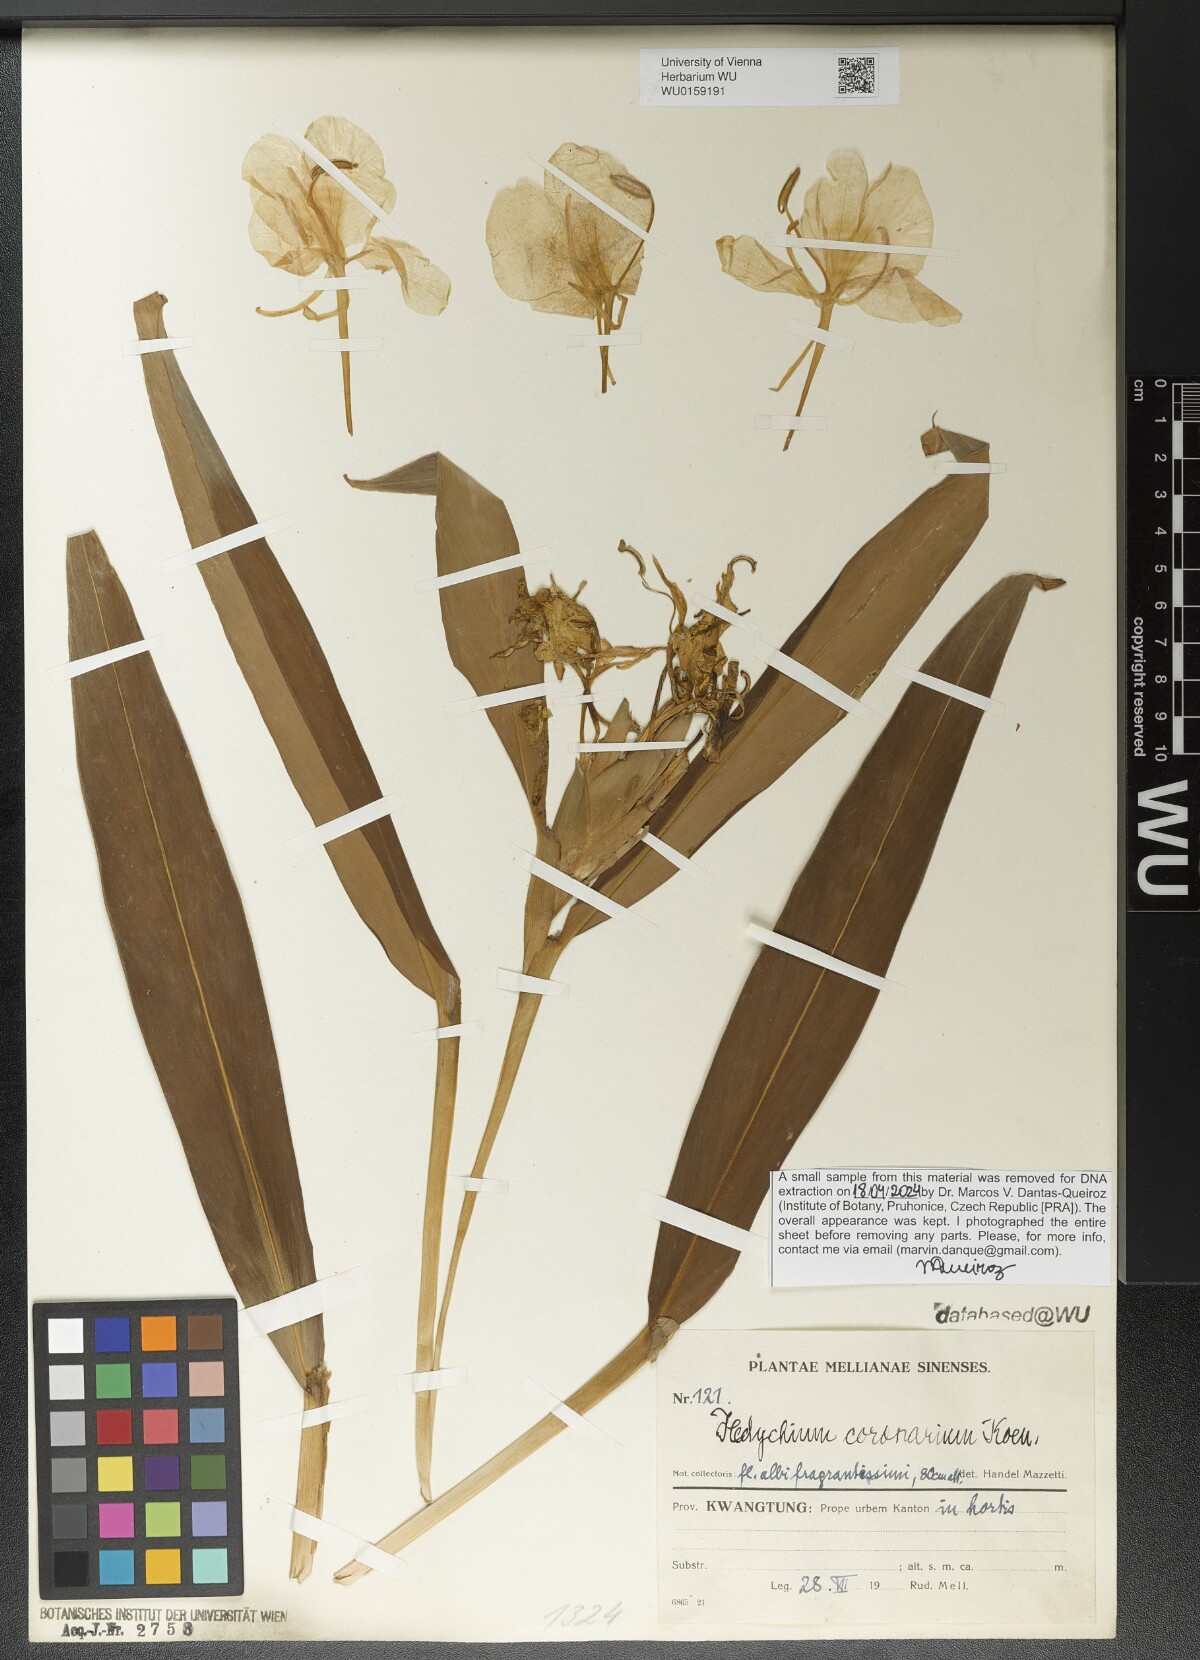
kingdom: Plantae
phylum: Tracheophyta
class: Liliopsida
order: Zingiberales
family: Zingiberaceae
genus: Hedychium
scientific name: Hedychium coronarium
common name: White garland-lily
